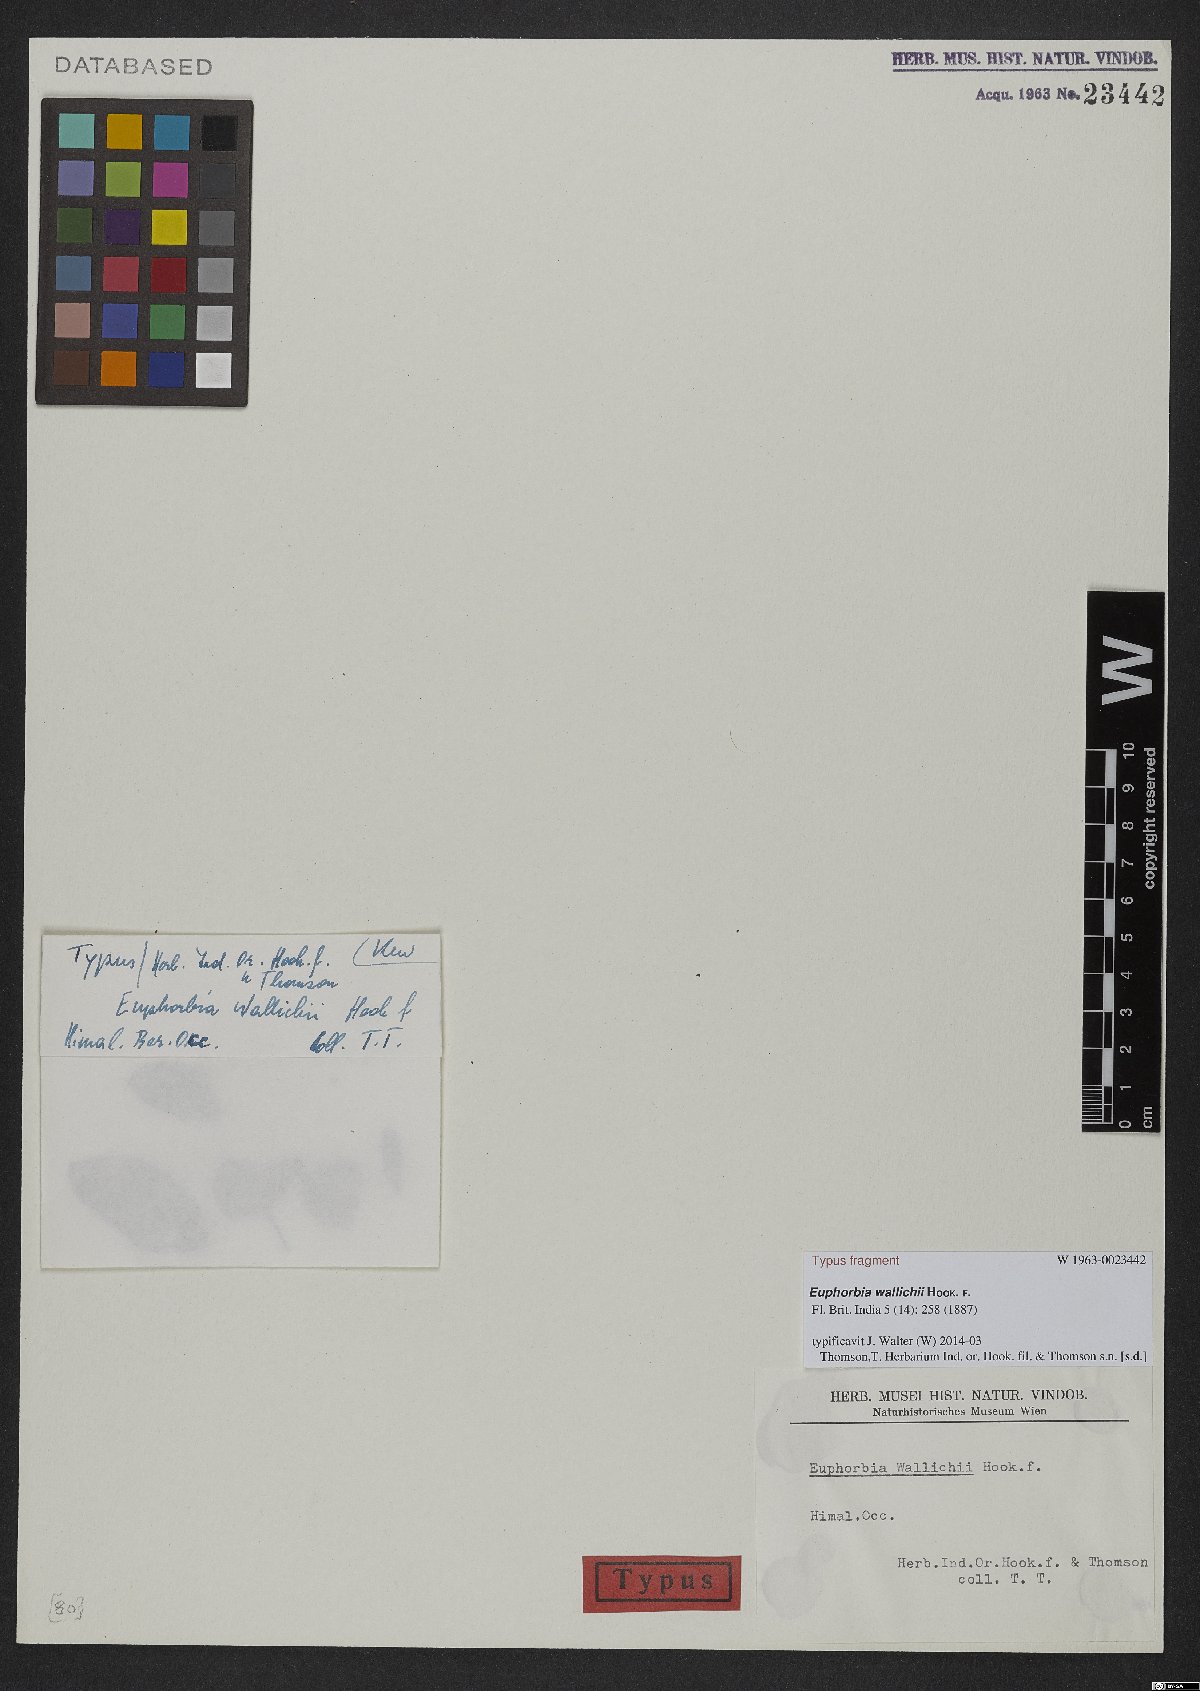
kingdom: Plantae
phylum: Tracheophyta
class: Magnoliopsida
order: Malpighiales
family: Euphorbiaceae
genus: Euphorbia
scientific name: Euphorbia wallichii
